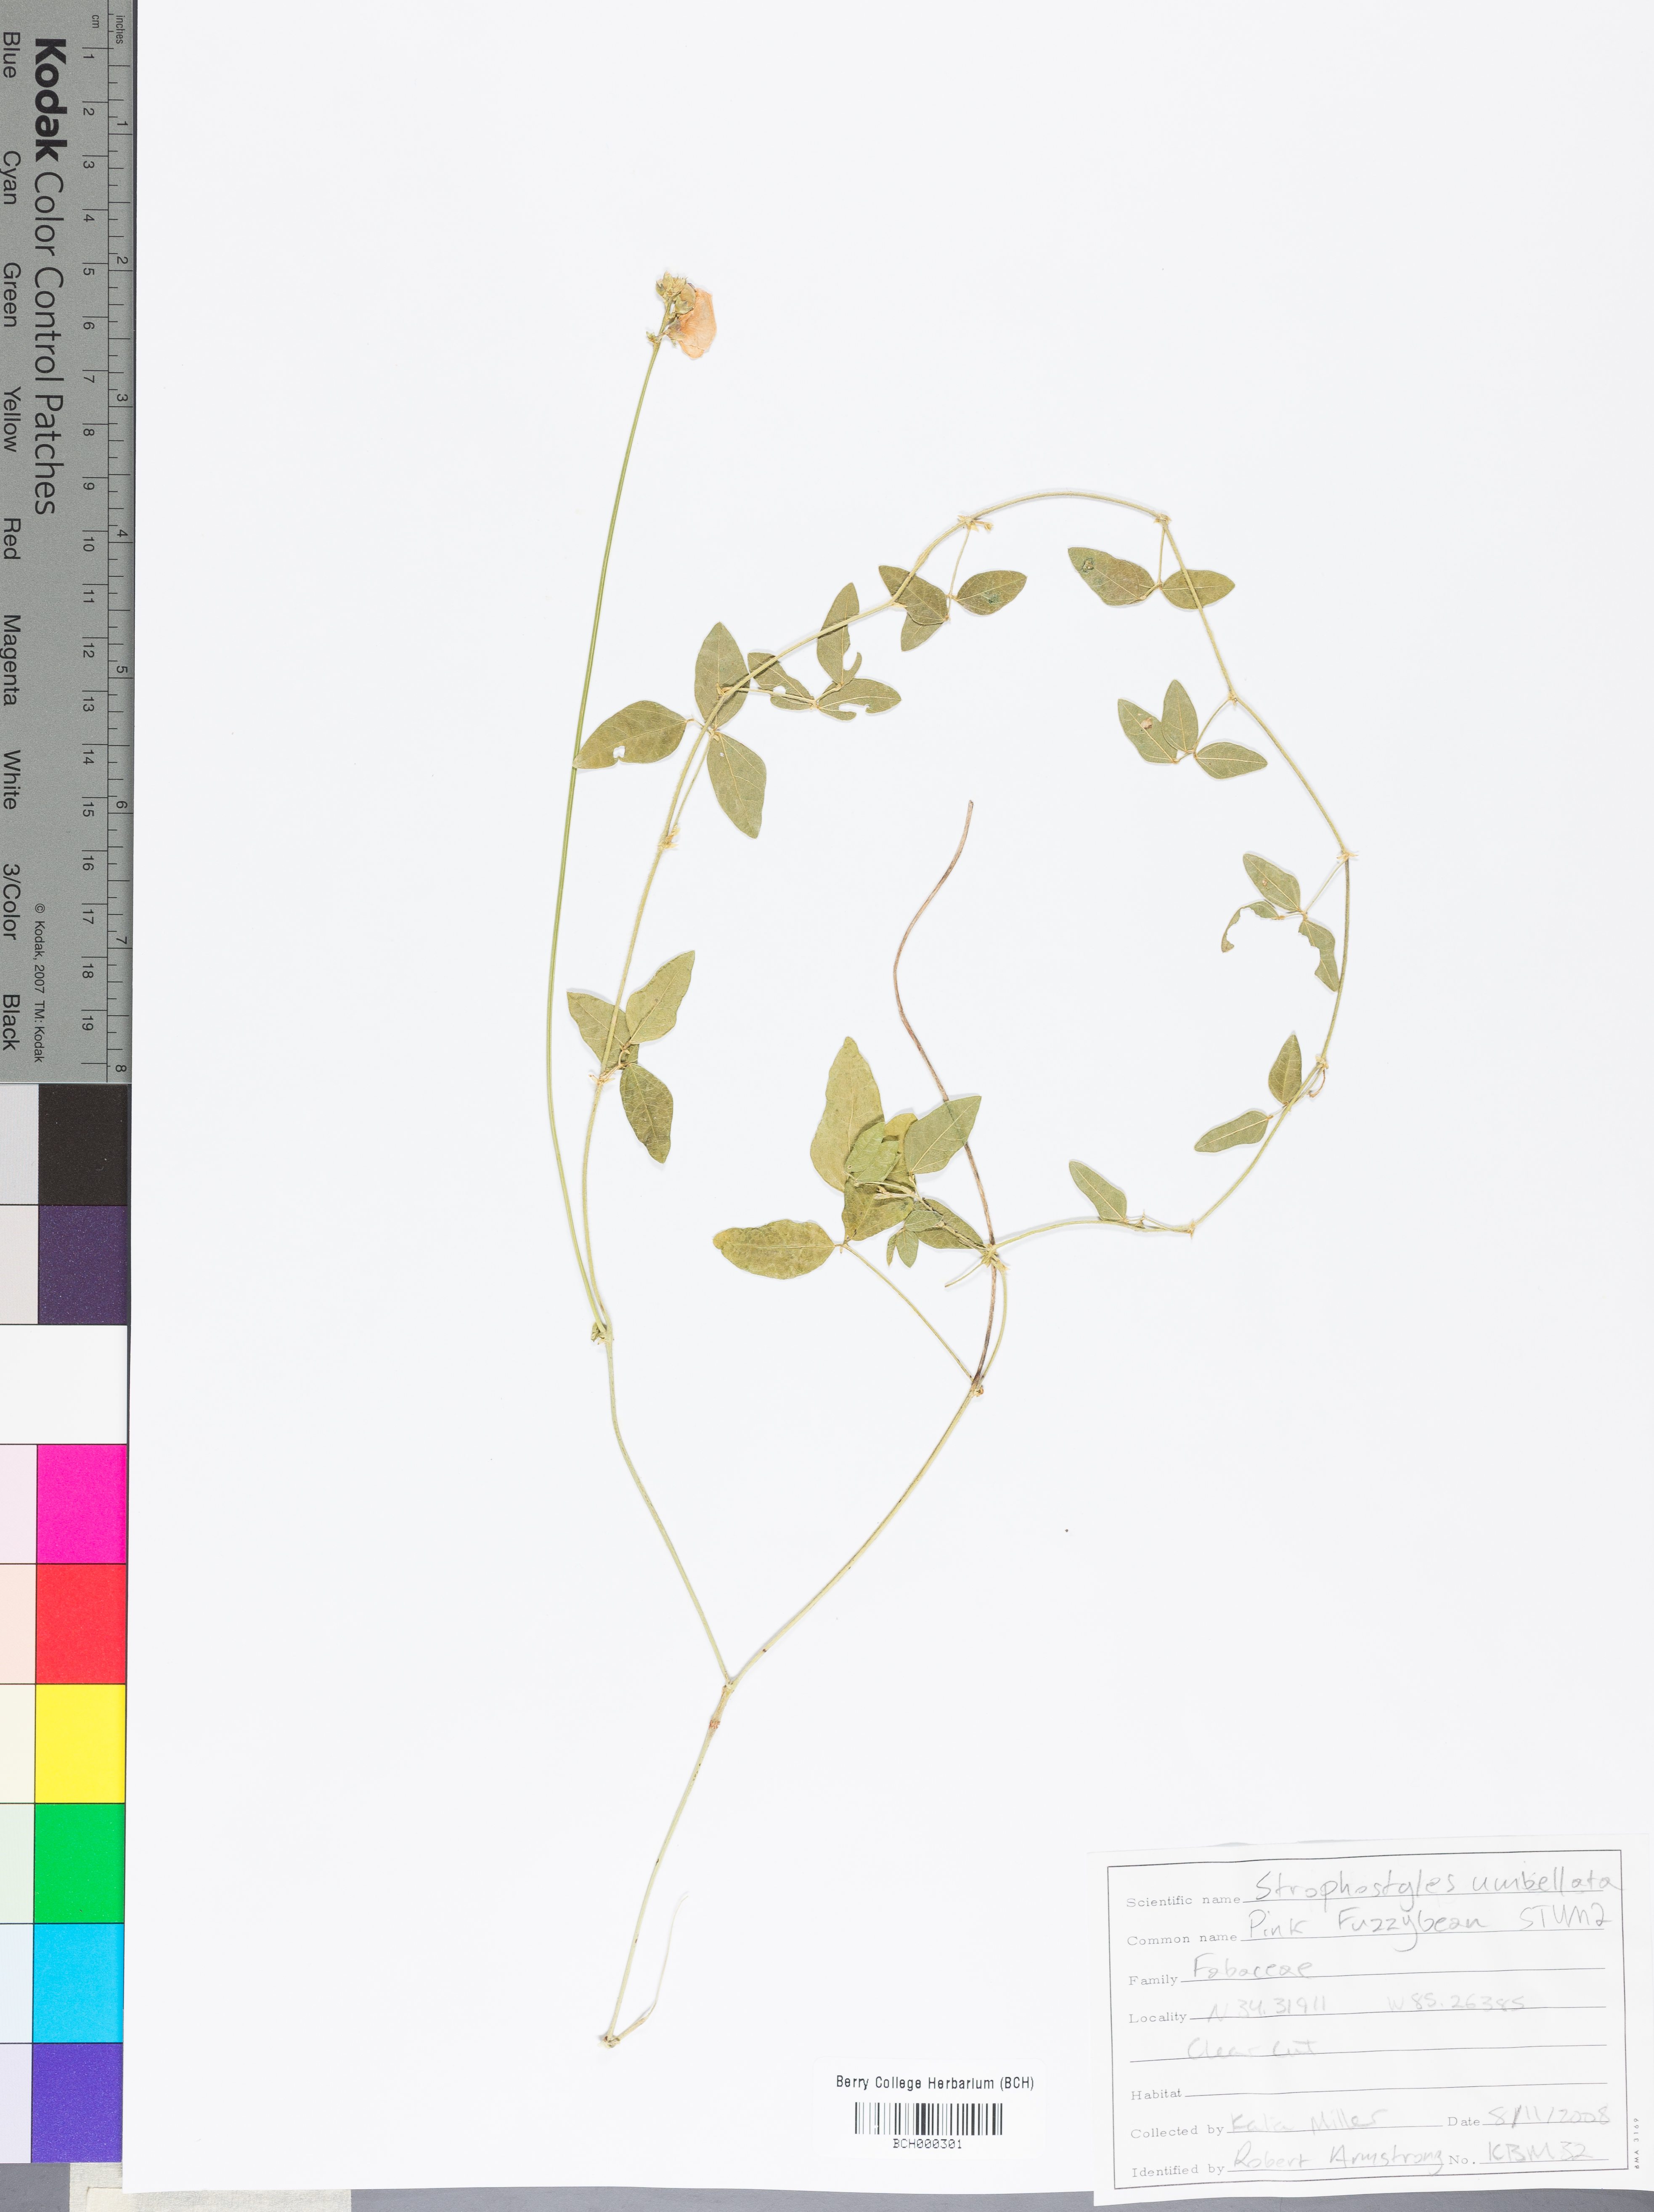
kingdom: Plantae
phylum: Tracheophyta
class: Magnoliopsida
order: Fabales
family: Fabaceae
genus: Strophostyles
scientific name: Strophostyles umbellata
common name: Perennial wild bean
